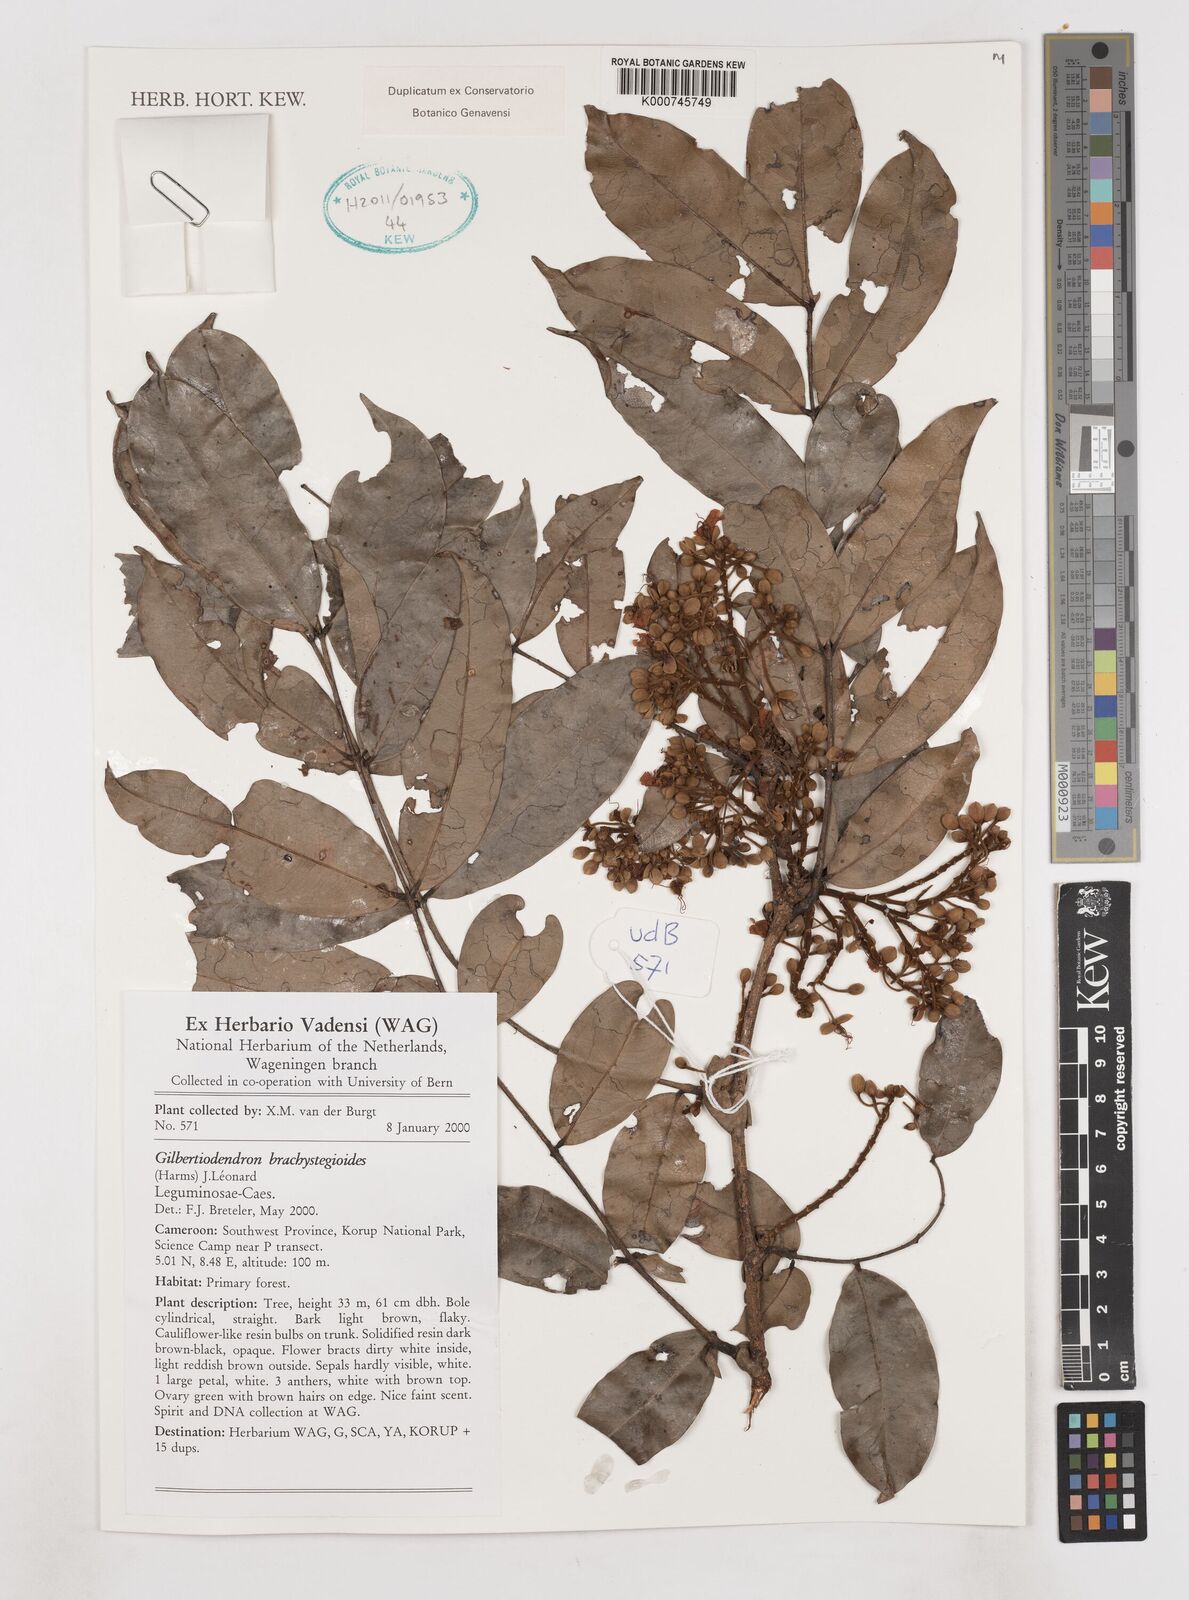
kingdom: Plantae
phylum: Tracheophyta
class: Magnoliopsida
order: Fabales
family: Fabaceae
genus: Gilbertiodendron
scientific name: Gilbertiodendron
